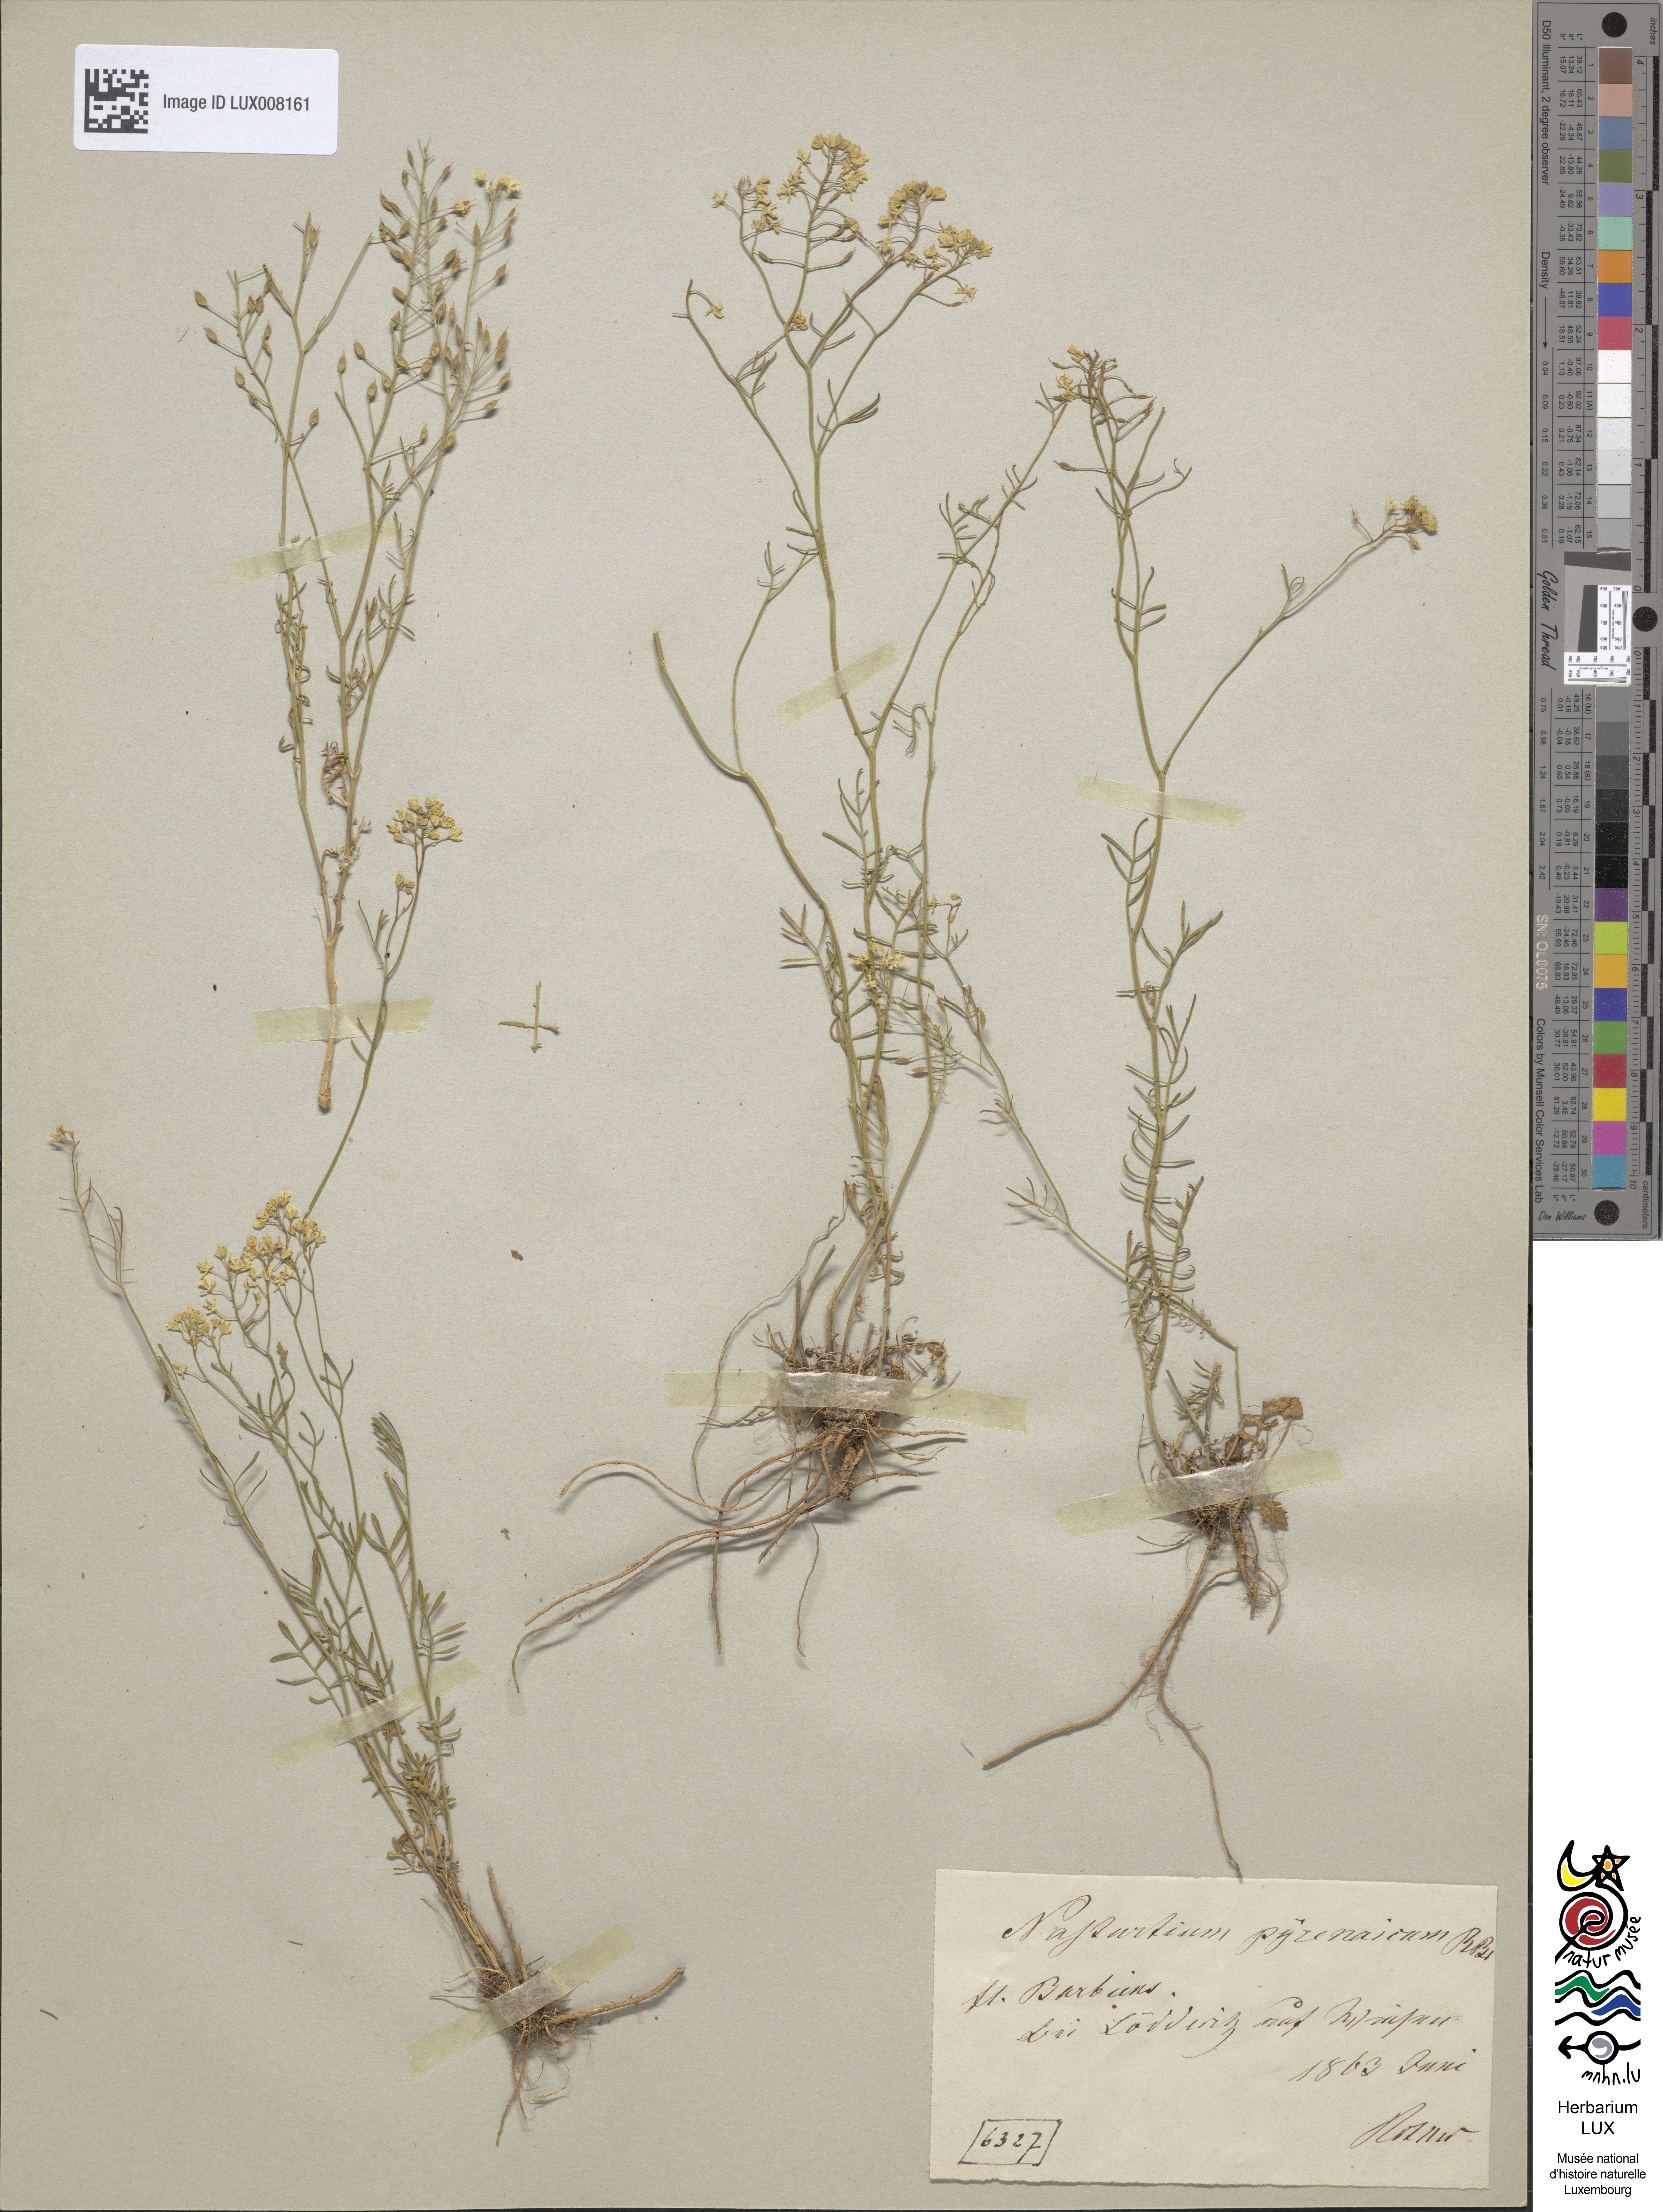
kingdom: Plantae
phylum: Tracheophyta
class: Magnoliopsida
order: Brassicales
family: Brassicaceae
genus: Rorippa
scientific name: Rorippa pyrenaica
